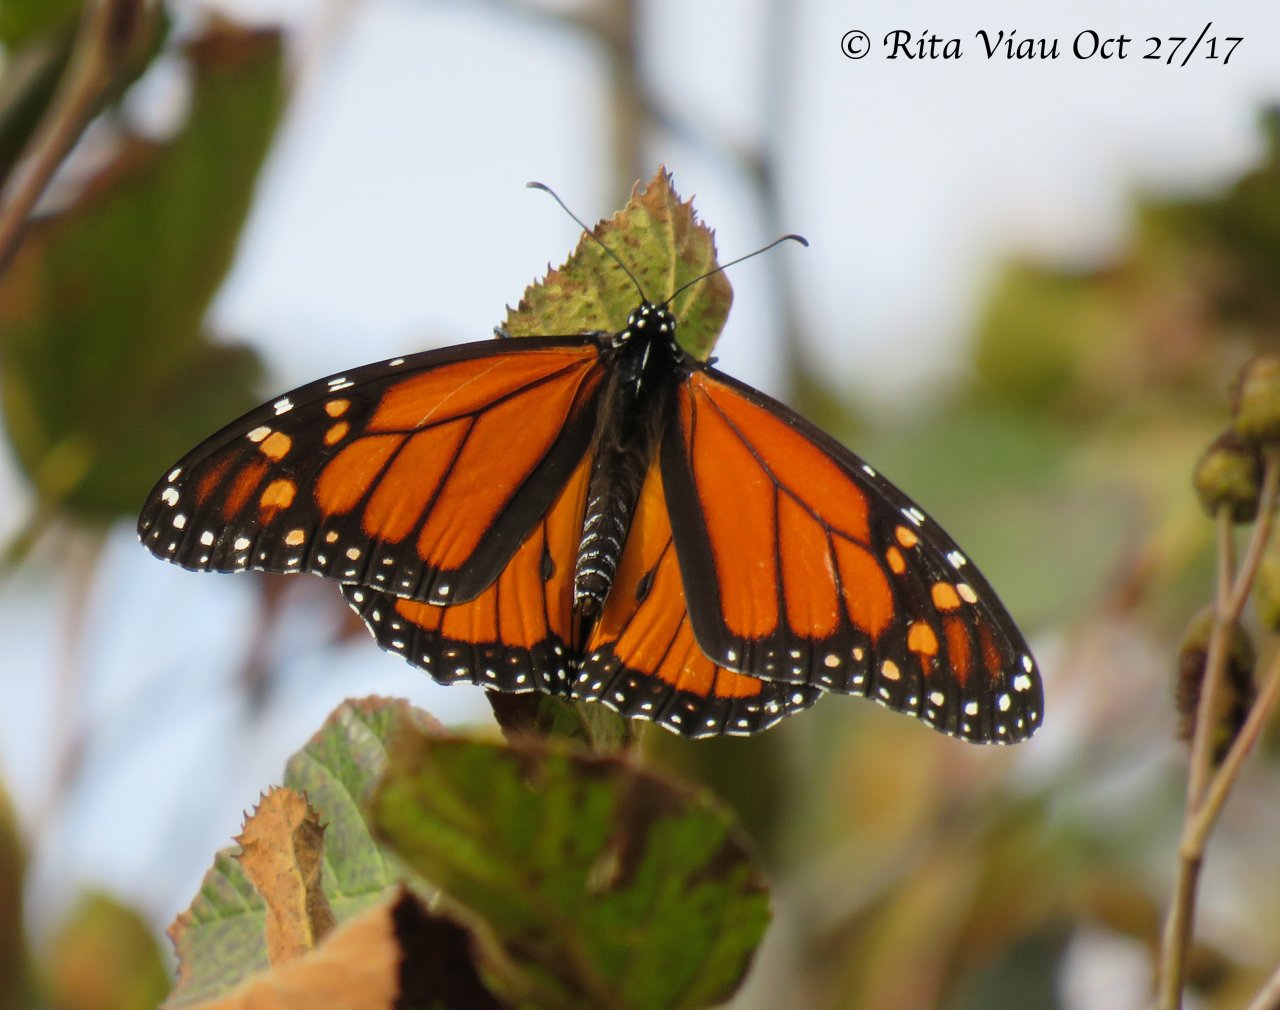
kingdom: Animalia
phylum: Arthropoda
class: Insecta
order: Lepidoptera
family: Nymphalidae
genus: Danaus
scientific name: Danaus plexippus
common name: Monarch
